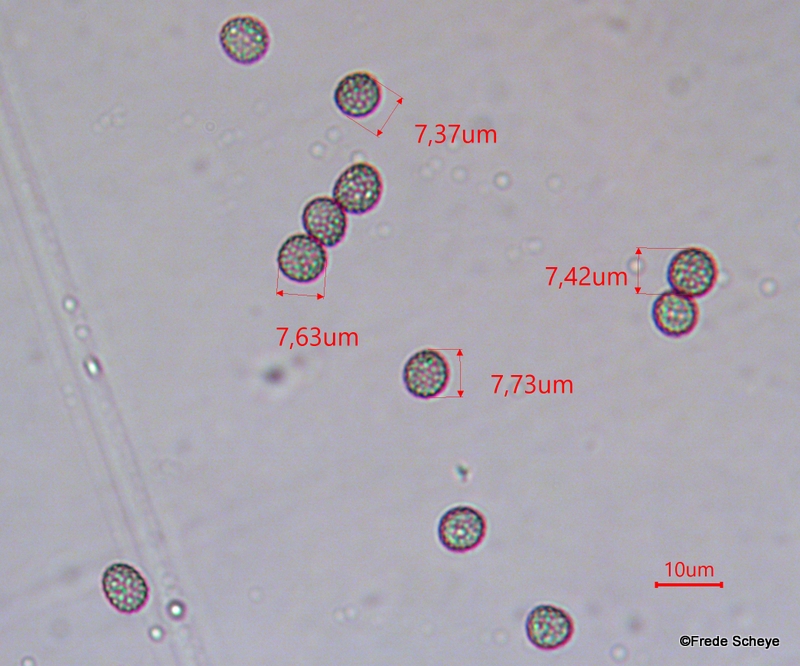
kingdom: Fungi
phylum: Basidiomycota
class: Microbotryomycetes
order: Microbotryales
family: Microbotryaceae
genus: Microbotryum
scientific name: Microbotryum stellariae
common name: fladstjerne-støvbladrust
